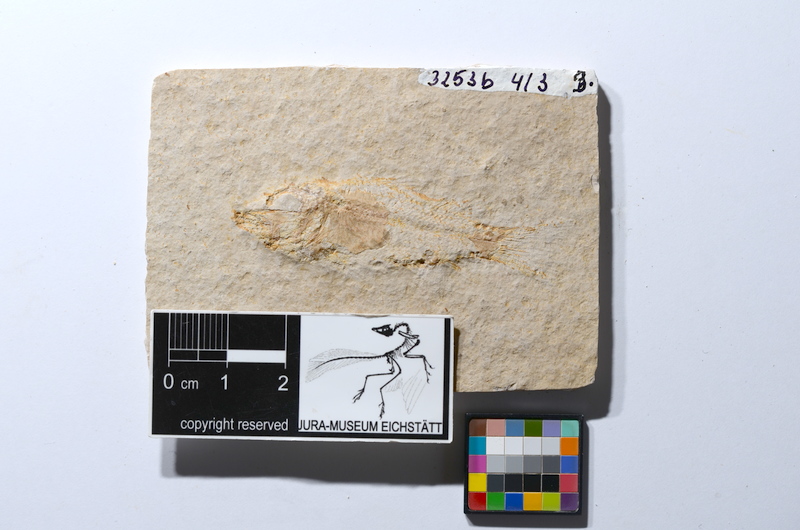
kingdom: Animalia
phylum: Chordata
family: Macrosemiidae
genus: Notagogus
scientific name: Notagogus decoratus
